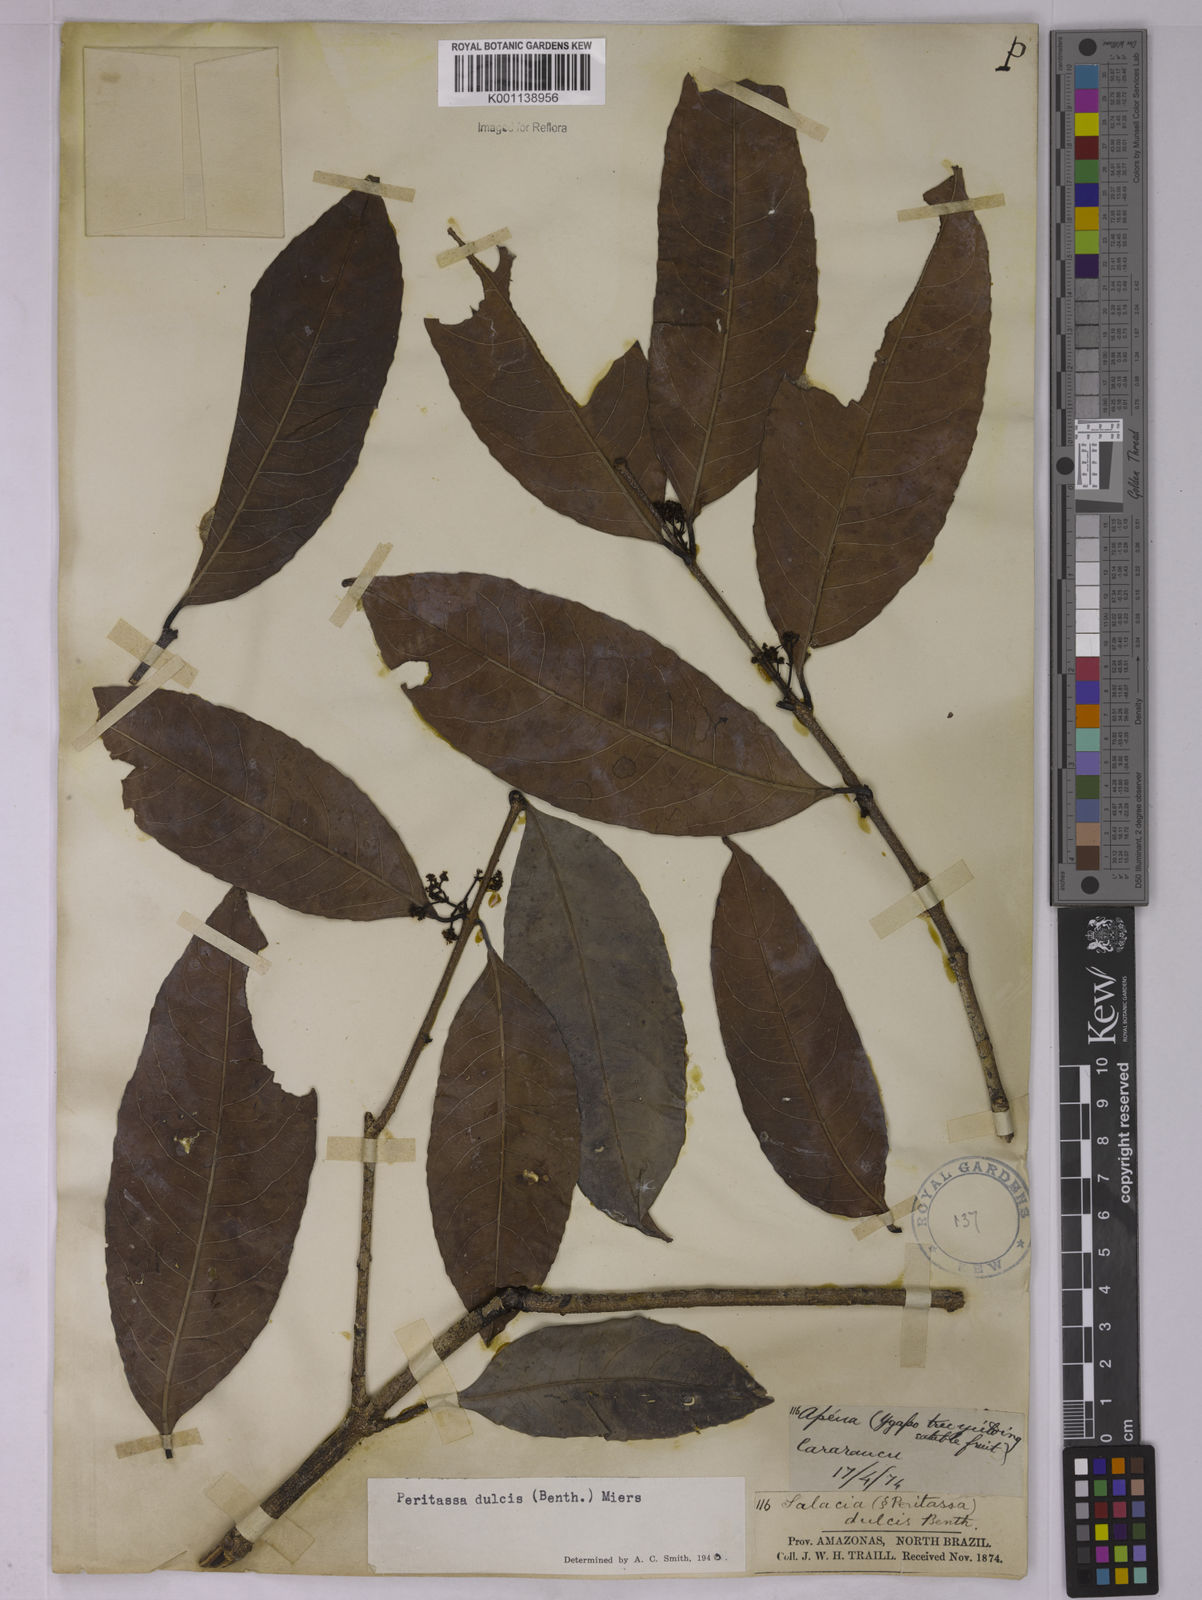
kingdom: Plantae
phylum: Tracheophyta
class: Magnoliopsida
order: Celastrales
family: Celastraceae
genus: Peritassa
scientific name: Peritassa dulcis
